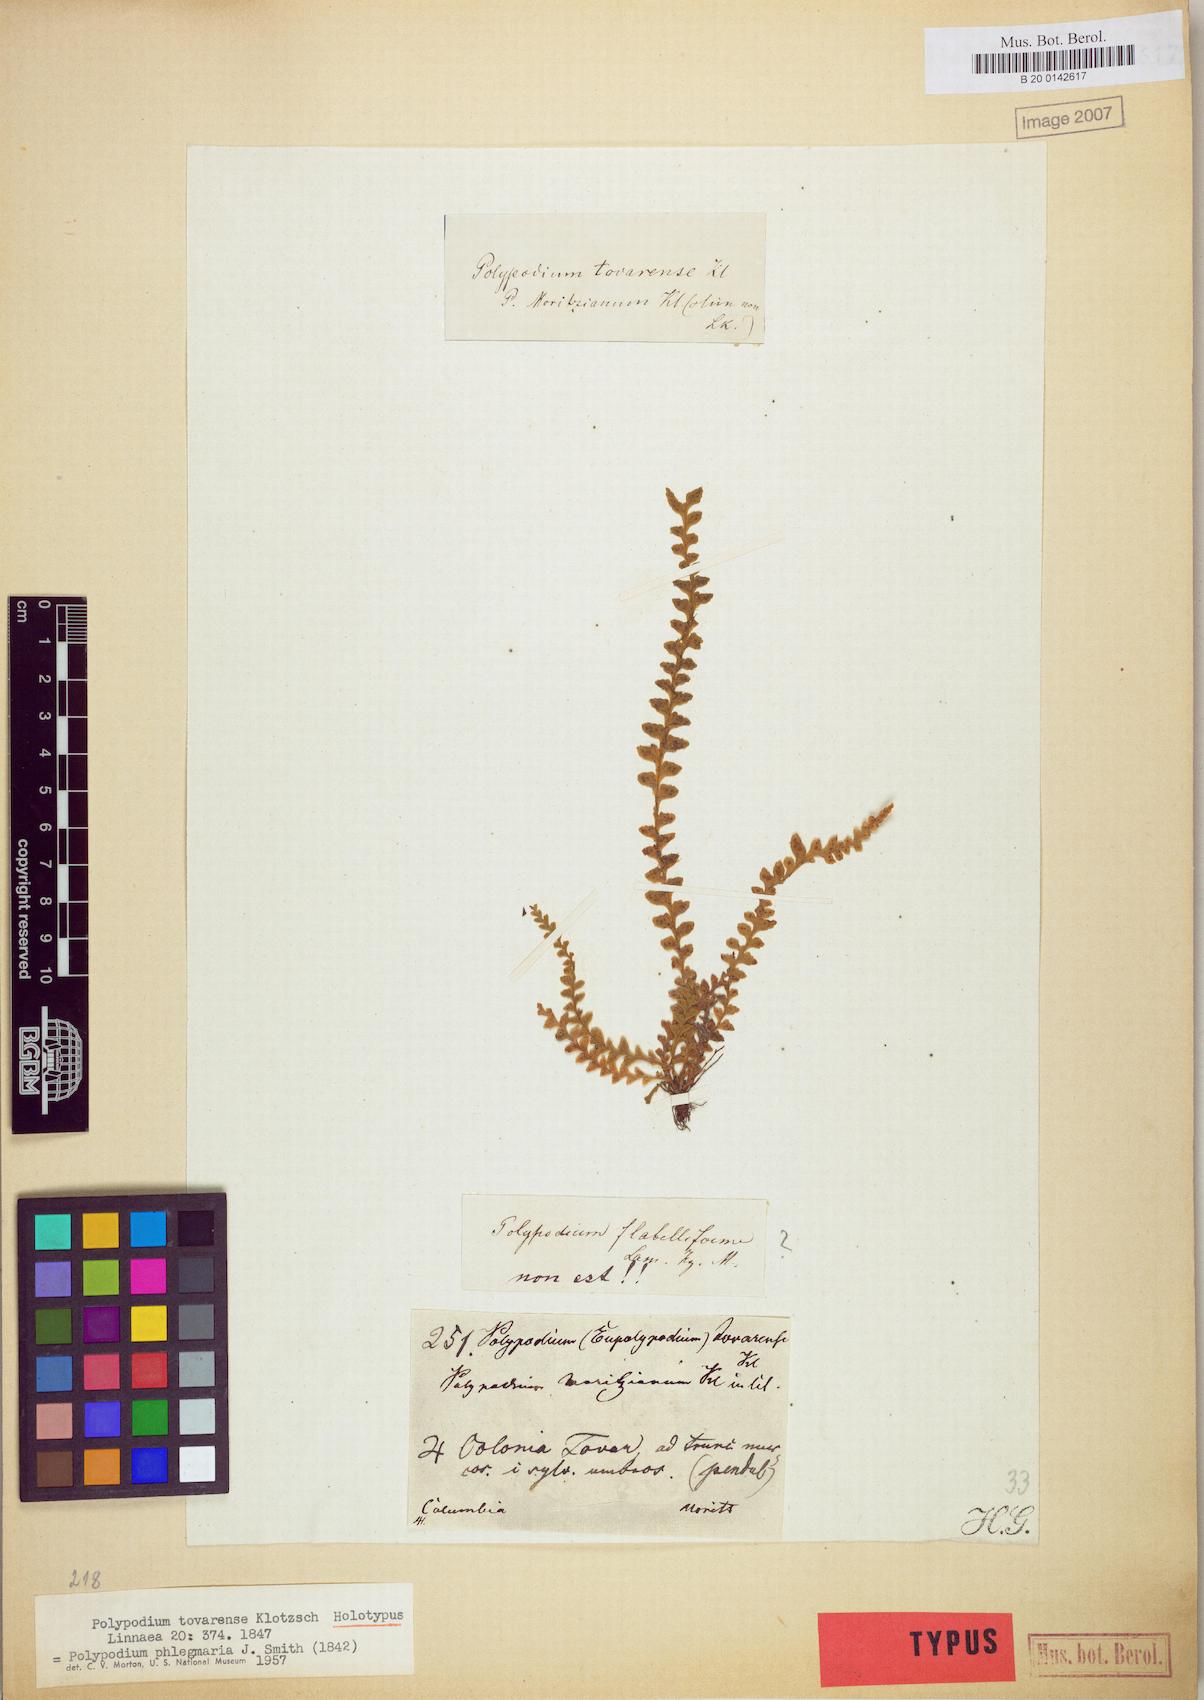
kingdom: Plantae
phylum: Tracheophyta
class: Polypodiopsida
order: Polypodiales
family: Polypodiaceae
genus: Lellingeria
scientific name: Lellingeria phlegmaria
